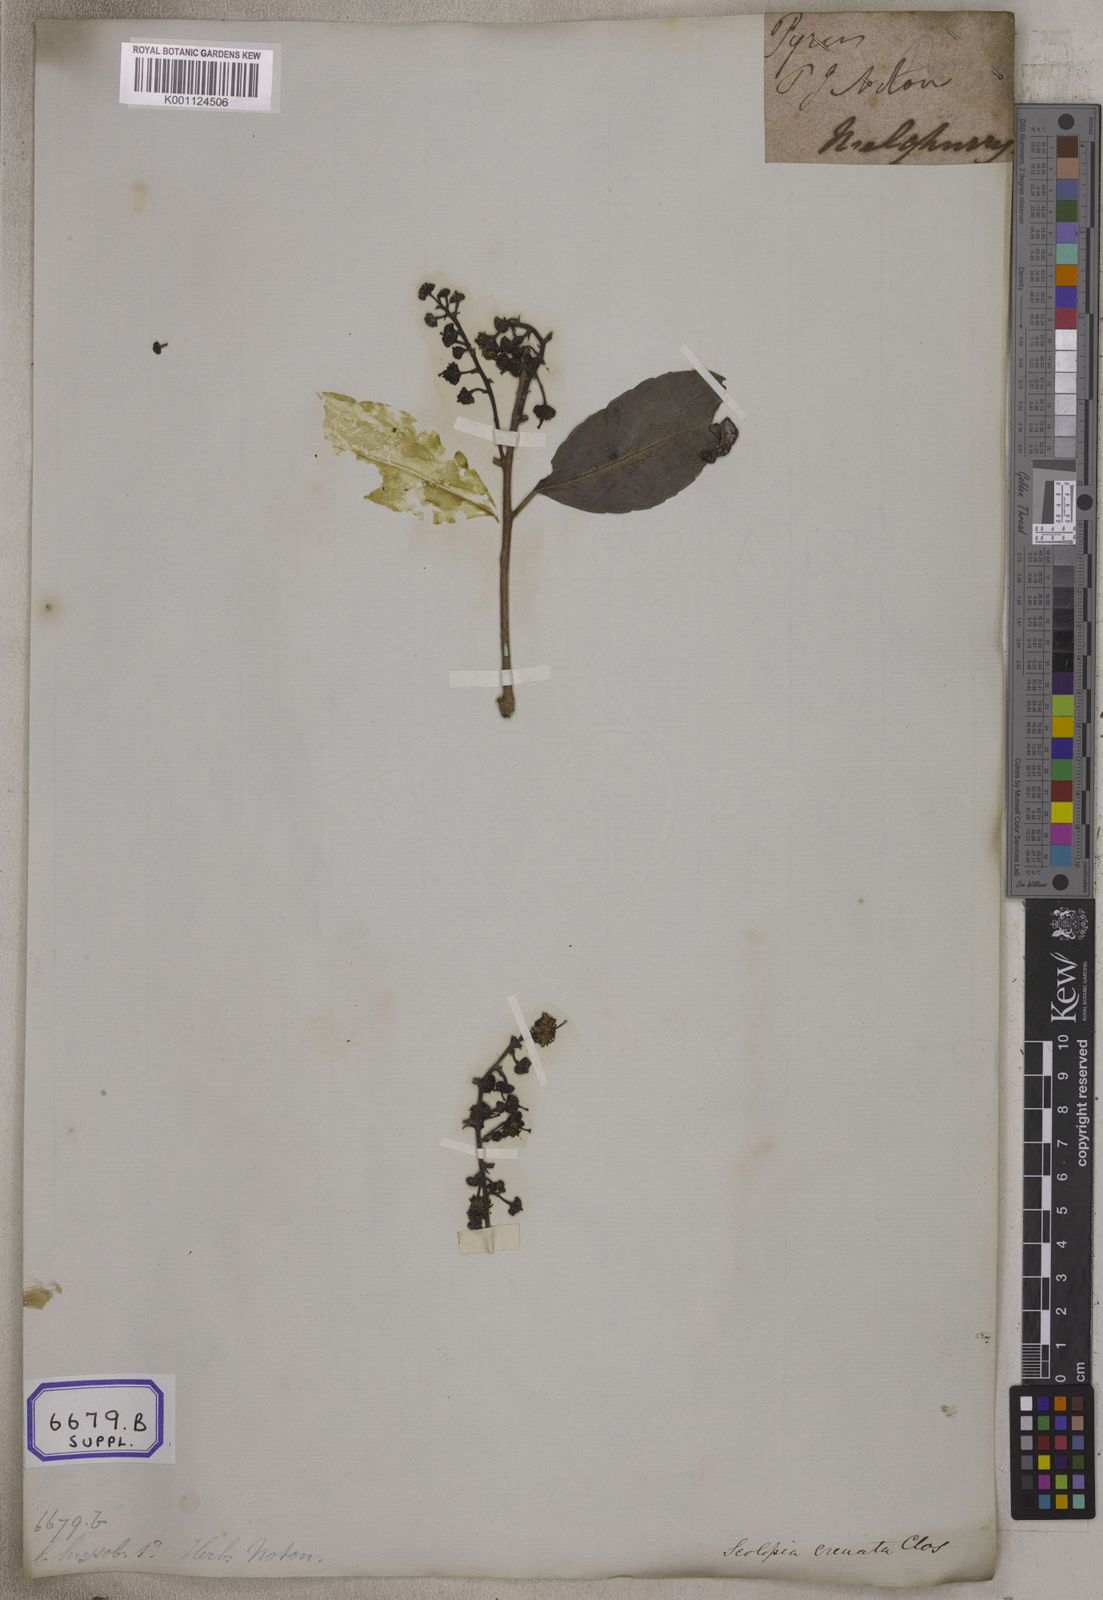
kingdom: Plantae
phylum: Tracheophyta
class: Magnoliopsida
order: Malpighiales
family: Salicaceae
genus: Scolopia
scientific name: Scolopia luzonensis
